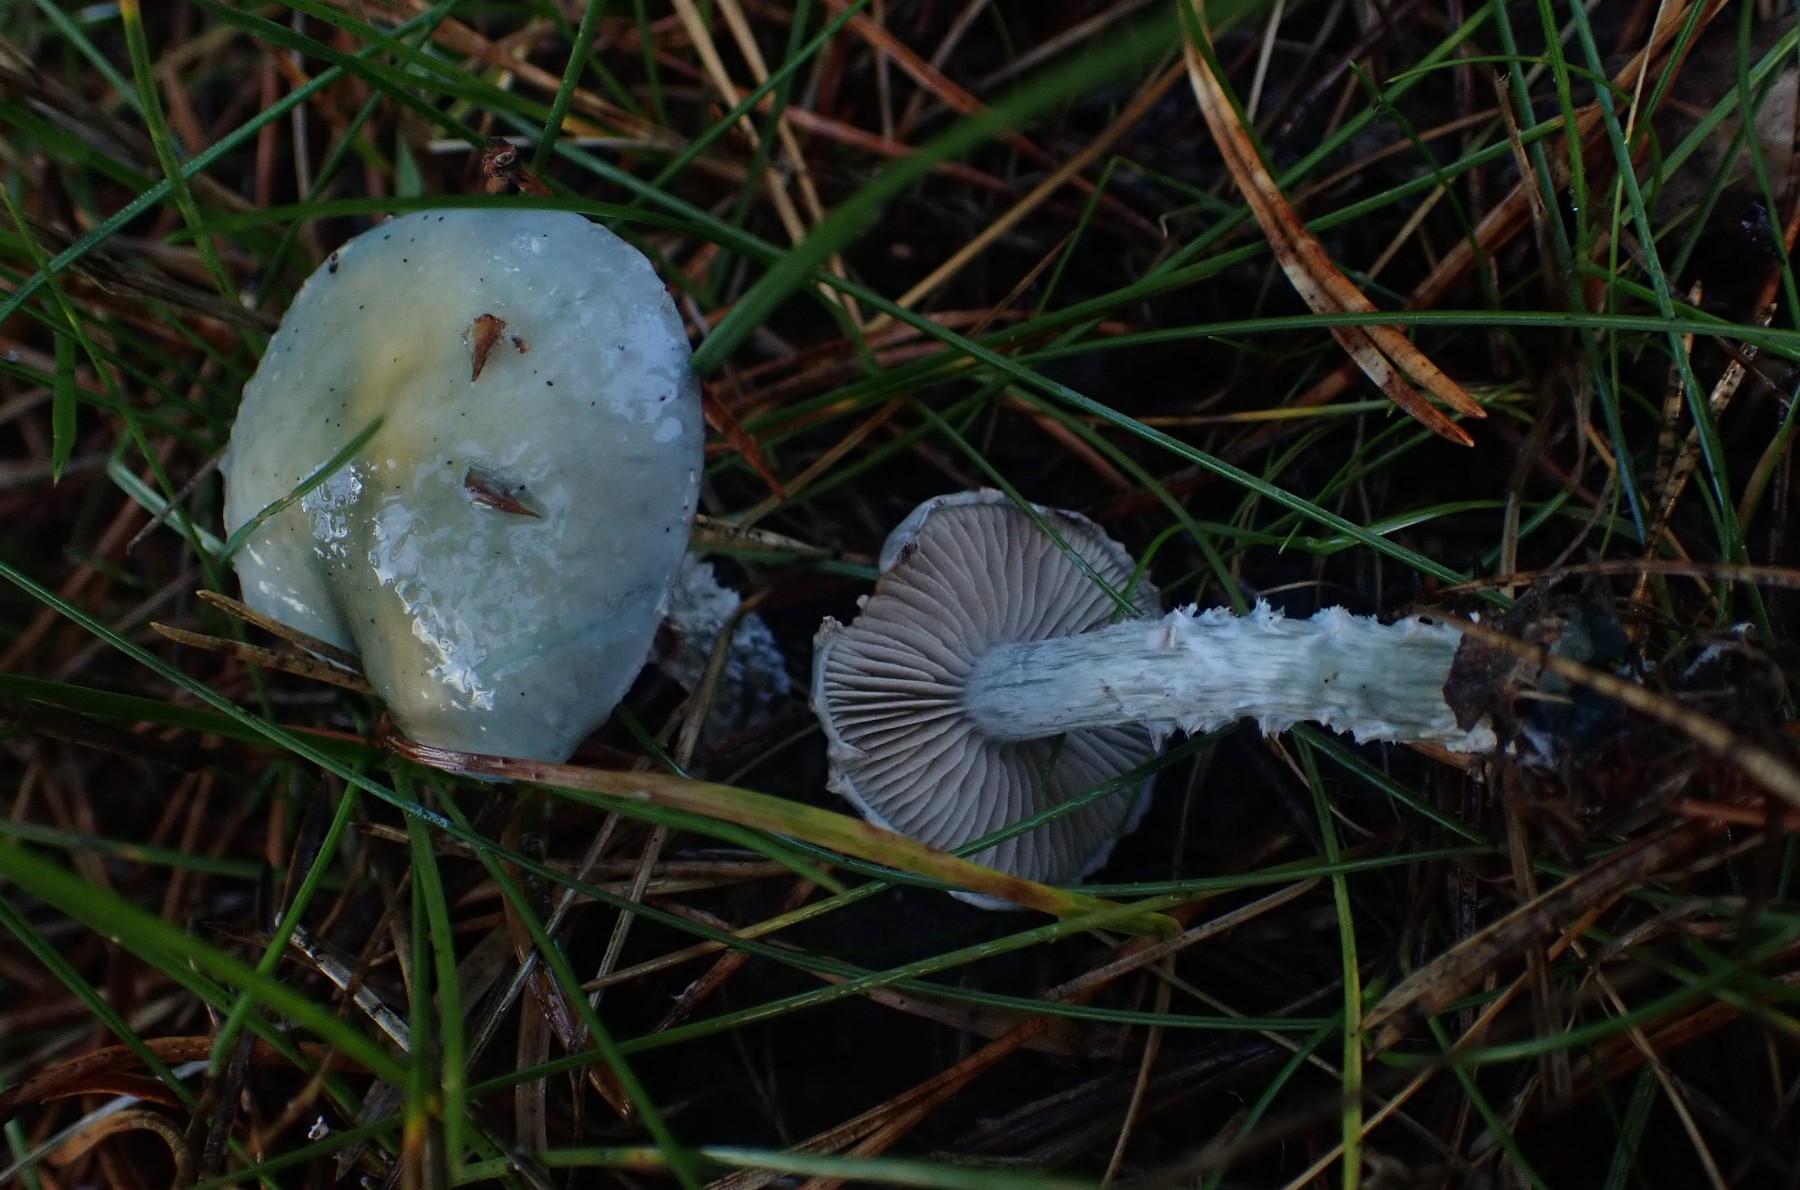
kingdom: Fungi
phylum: Basidiomycota
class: Agaricomycetes
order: Agaricales
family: Strophariaceae
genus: Stropharia
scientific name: Stropharia cyanea
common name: blågrøn bredblad
